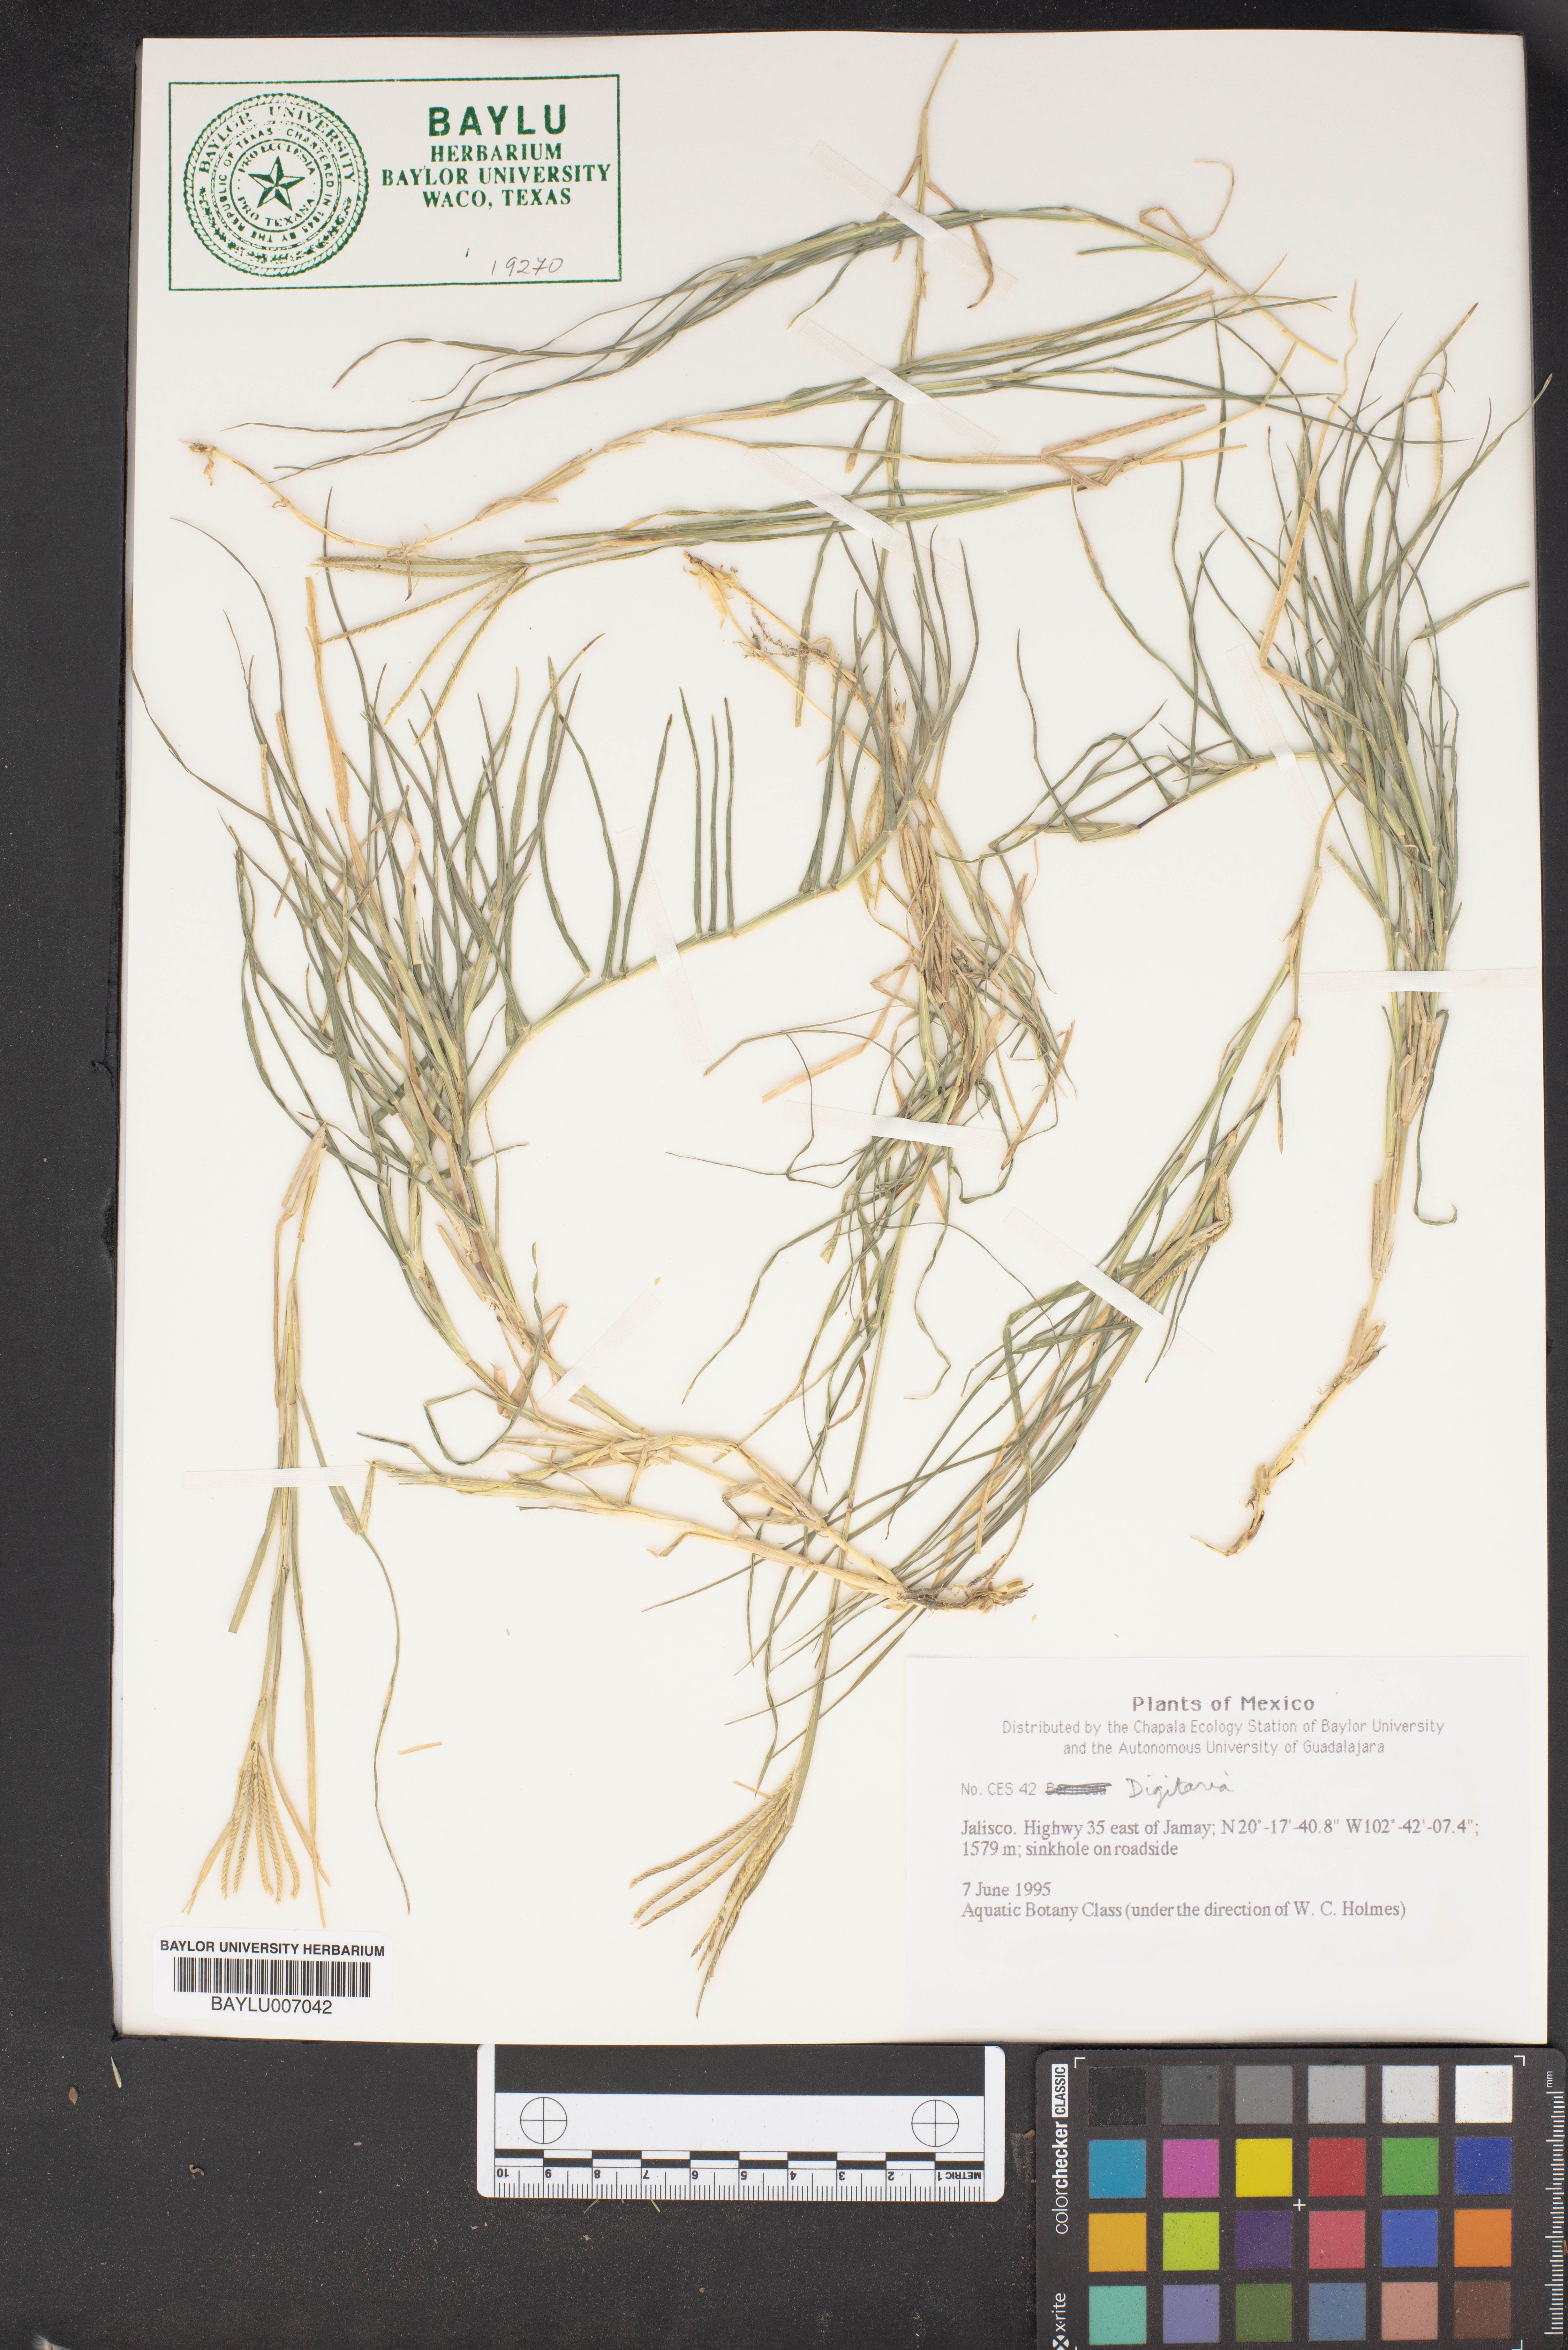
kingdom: Plantae
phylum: Tracheophyta
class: Liliopsida
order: Poales
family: Poaceae
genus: Digitaria
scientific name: Digitaria
